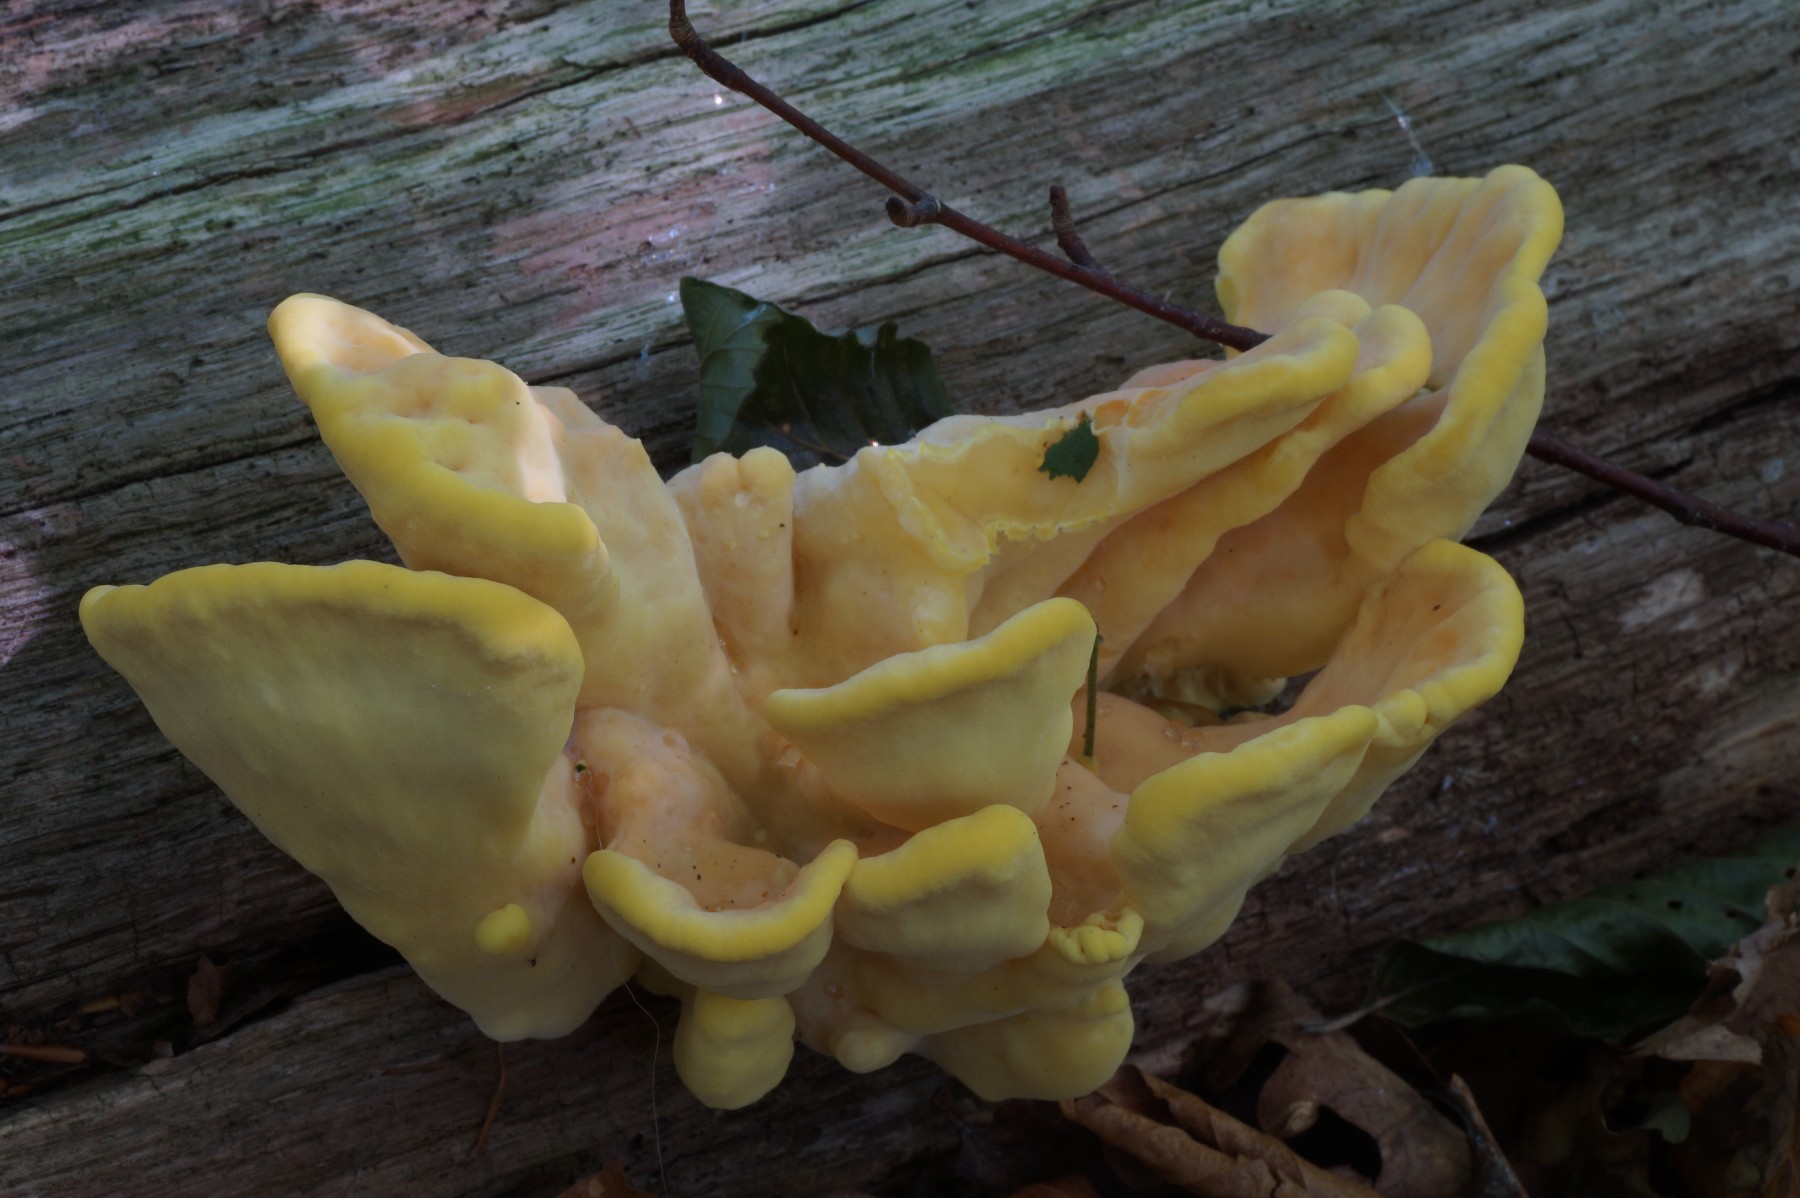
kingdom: Fungi
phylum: Basidiomycota
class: Agaricomycetes
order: Polyporales
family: Laetiporaceae
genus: Laetiporus
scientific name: Laetiporus sulphureus
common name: svovlporesvamp
